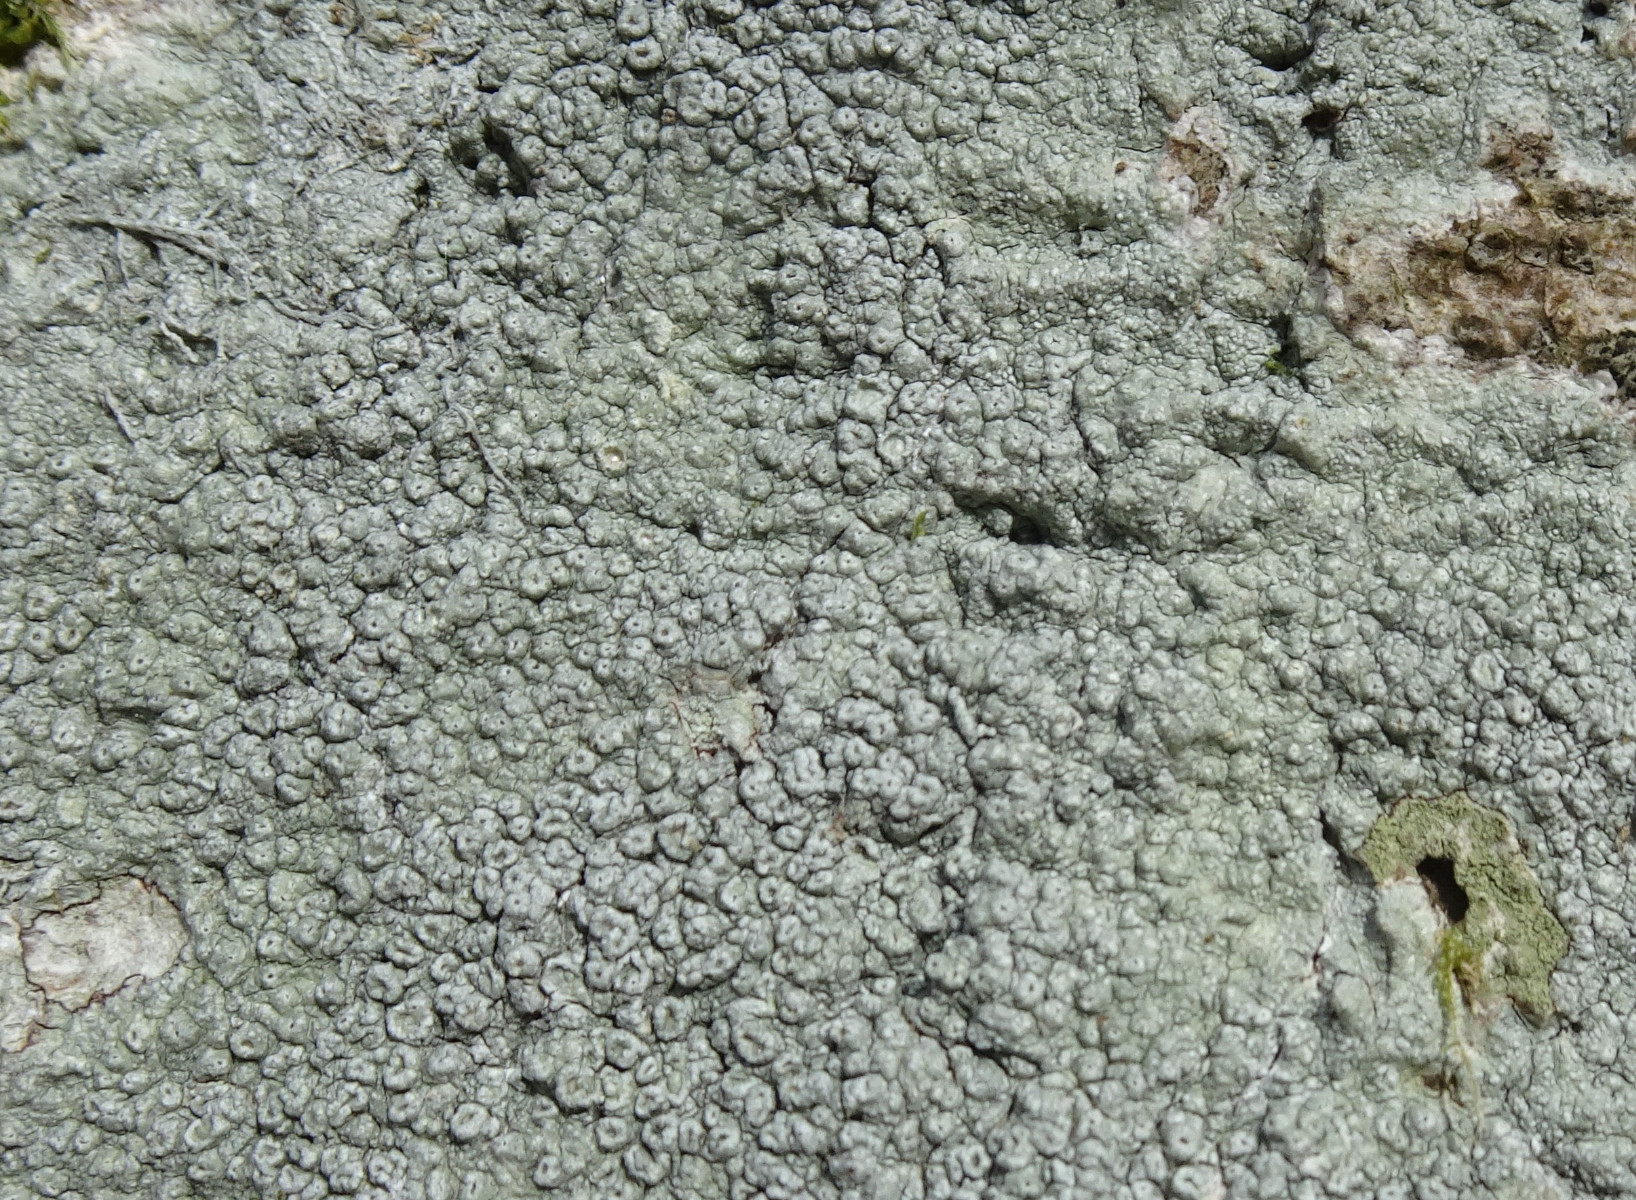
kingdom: Fungi
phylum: Ascomycota
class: Lecanoromycetes
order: Pertusariales
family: Pertusariaceae
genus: Pertusaria
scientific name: Pertusaria hymenea
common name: åben prikvortelav
